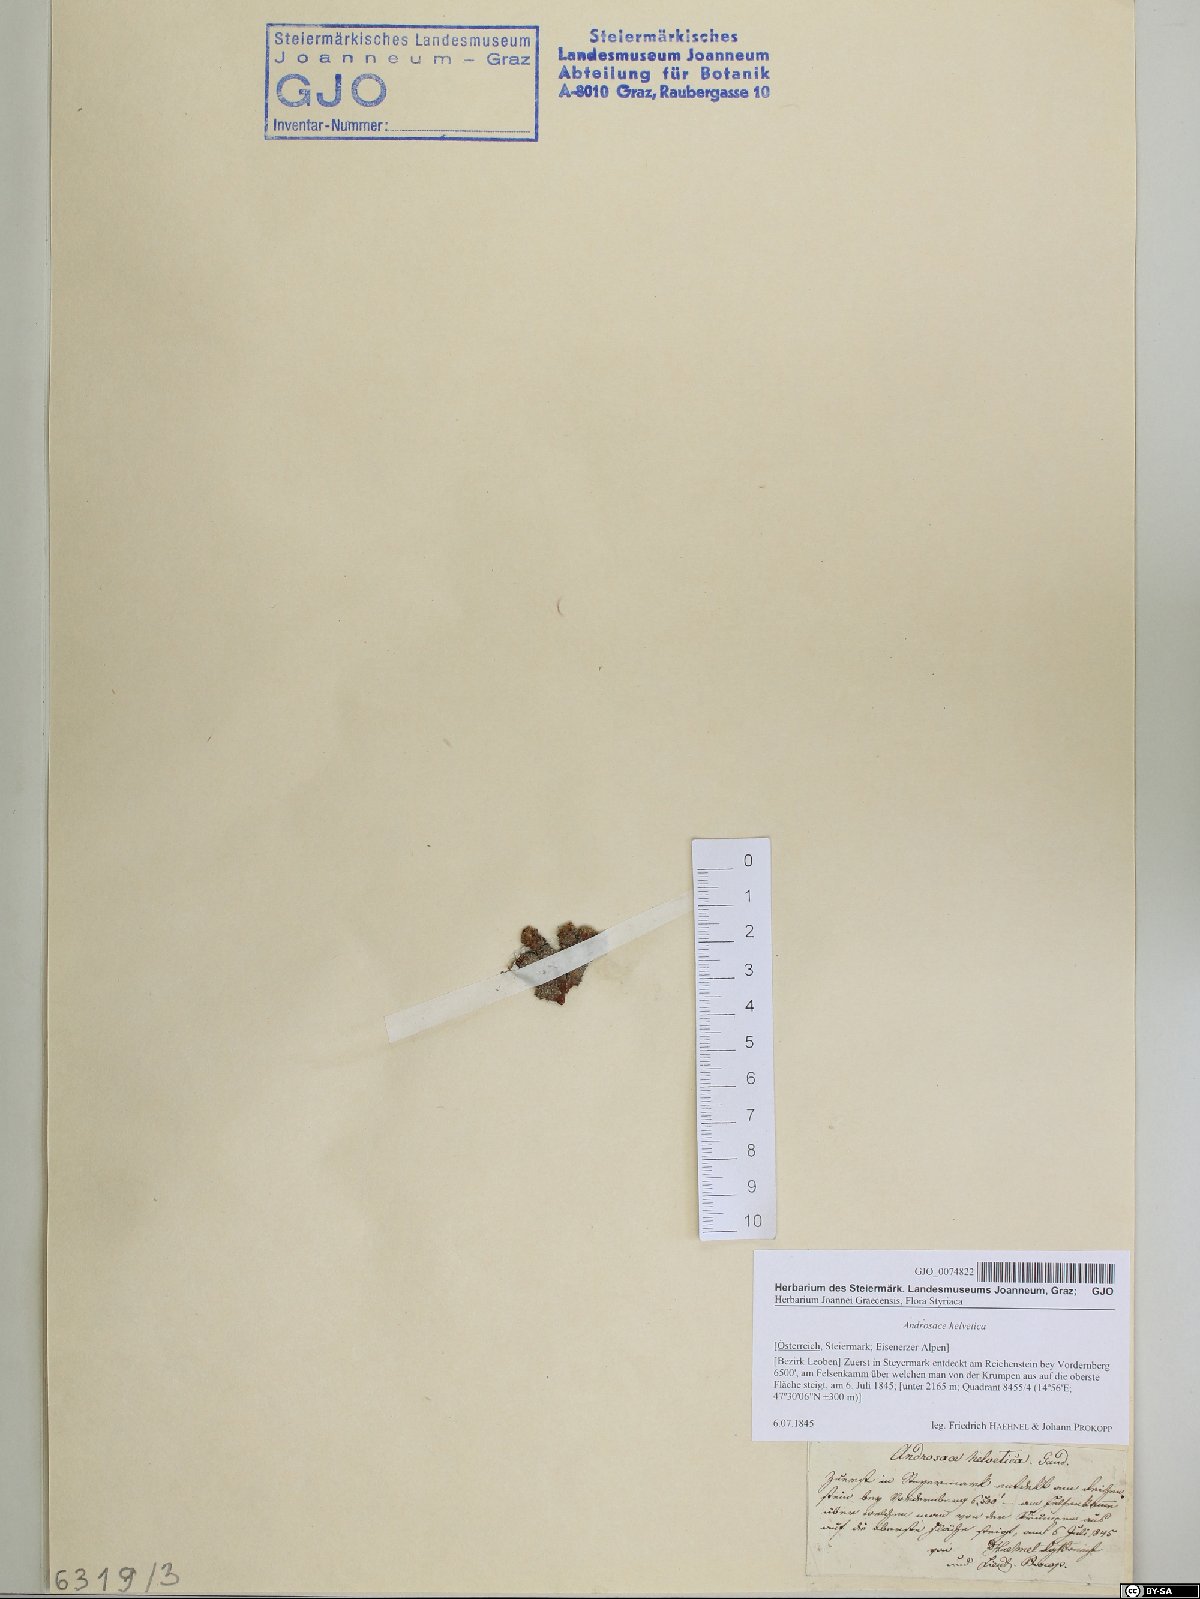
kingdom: Plantae
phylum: Tracheophyta
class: Magnoliopsida
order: Ericales
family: Primulaceae
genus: Androsace
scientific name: Androsace helvetica
